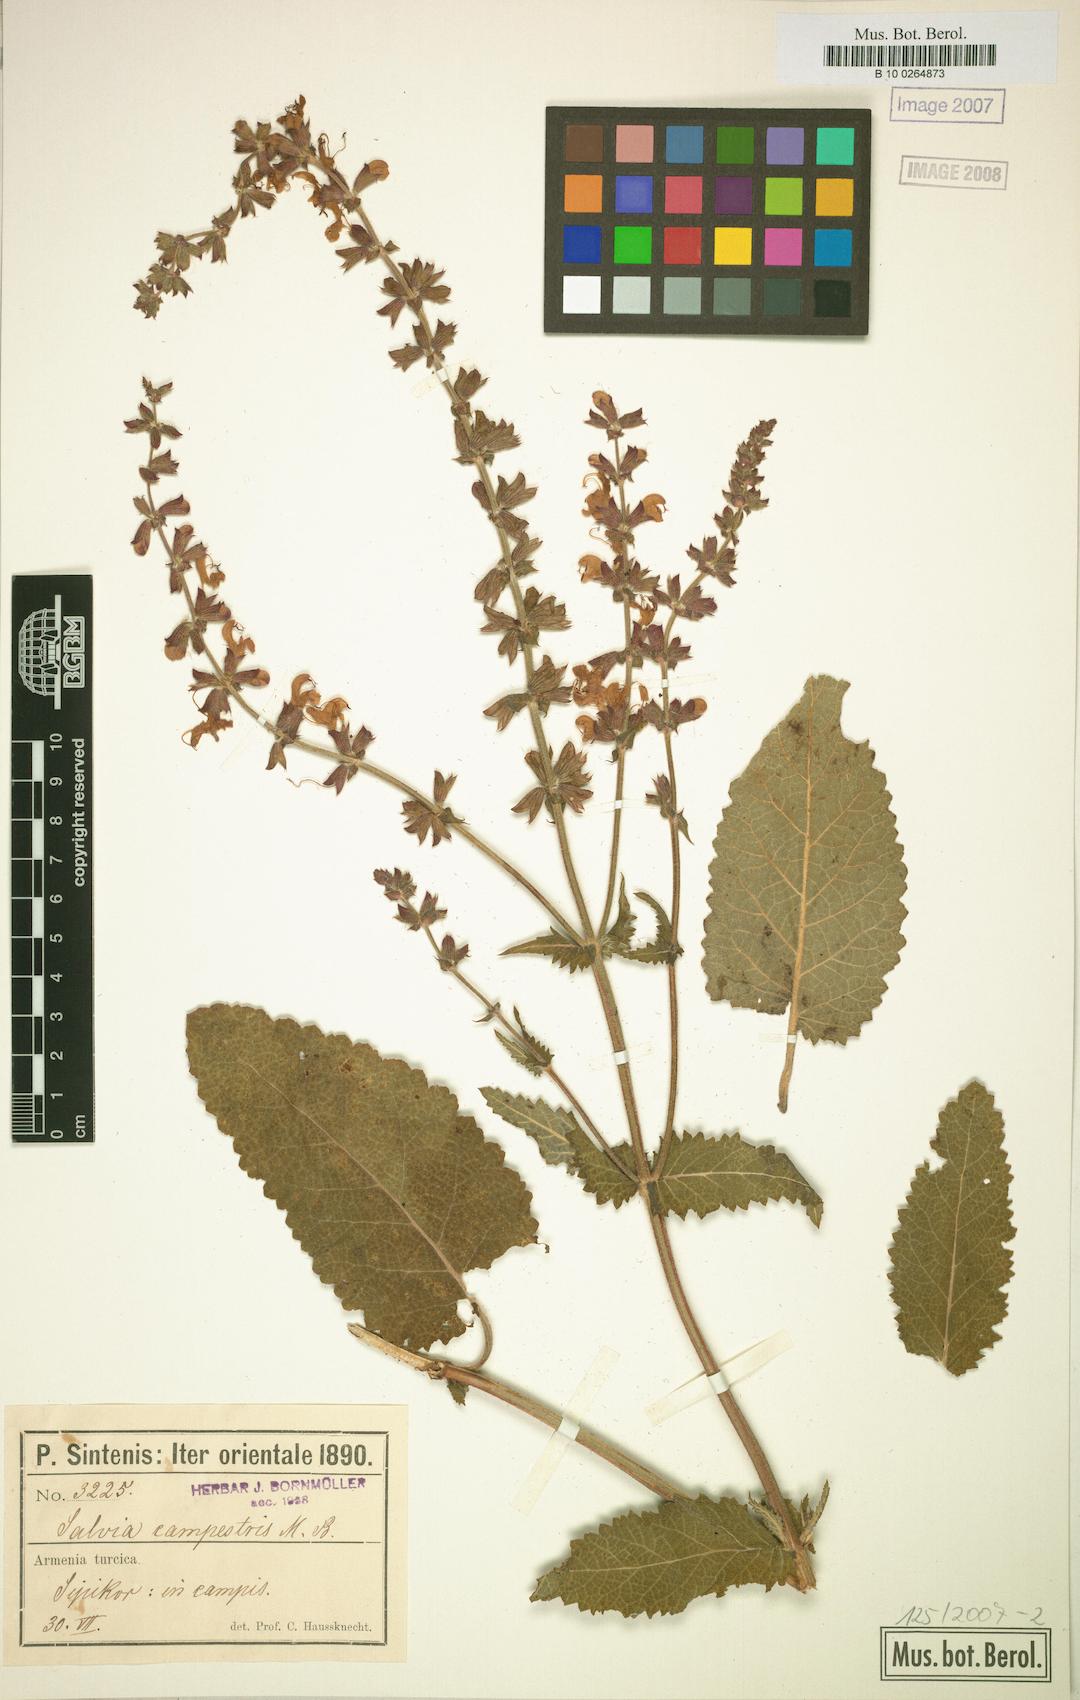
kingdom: Plantae
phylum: Tracheophyta
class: Magnoliopsida
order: Lamiales
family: Lamiaceae
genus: Salvia
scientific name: Salvia virgata
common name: Wand sage
